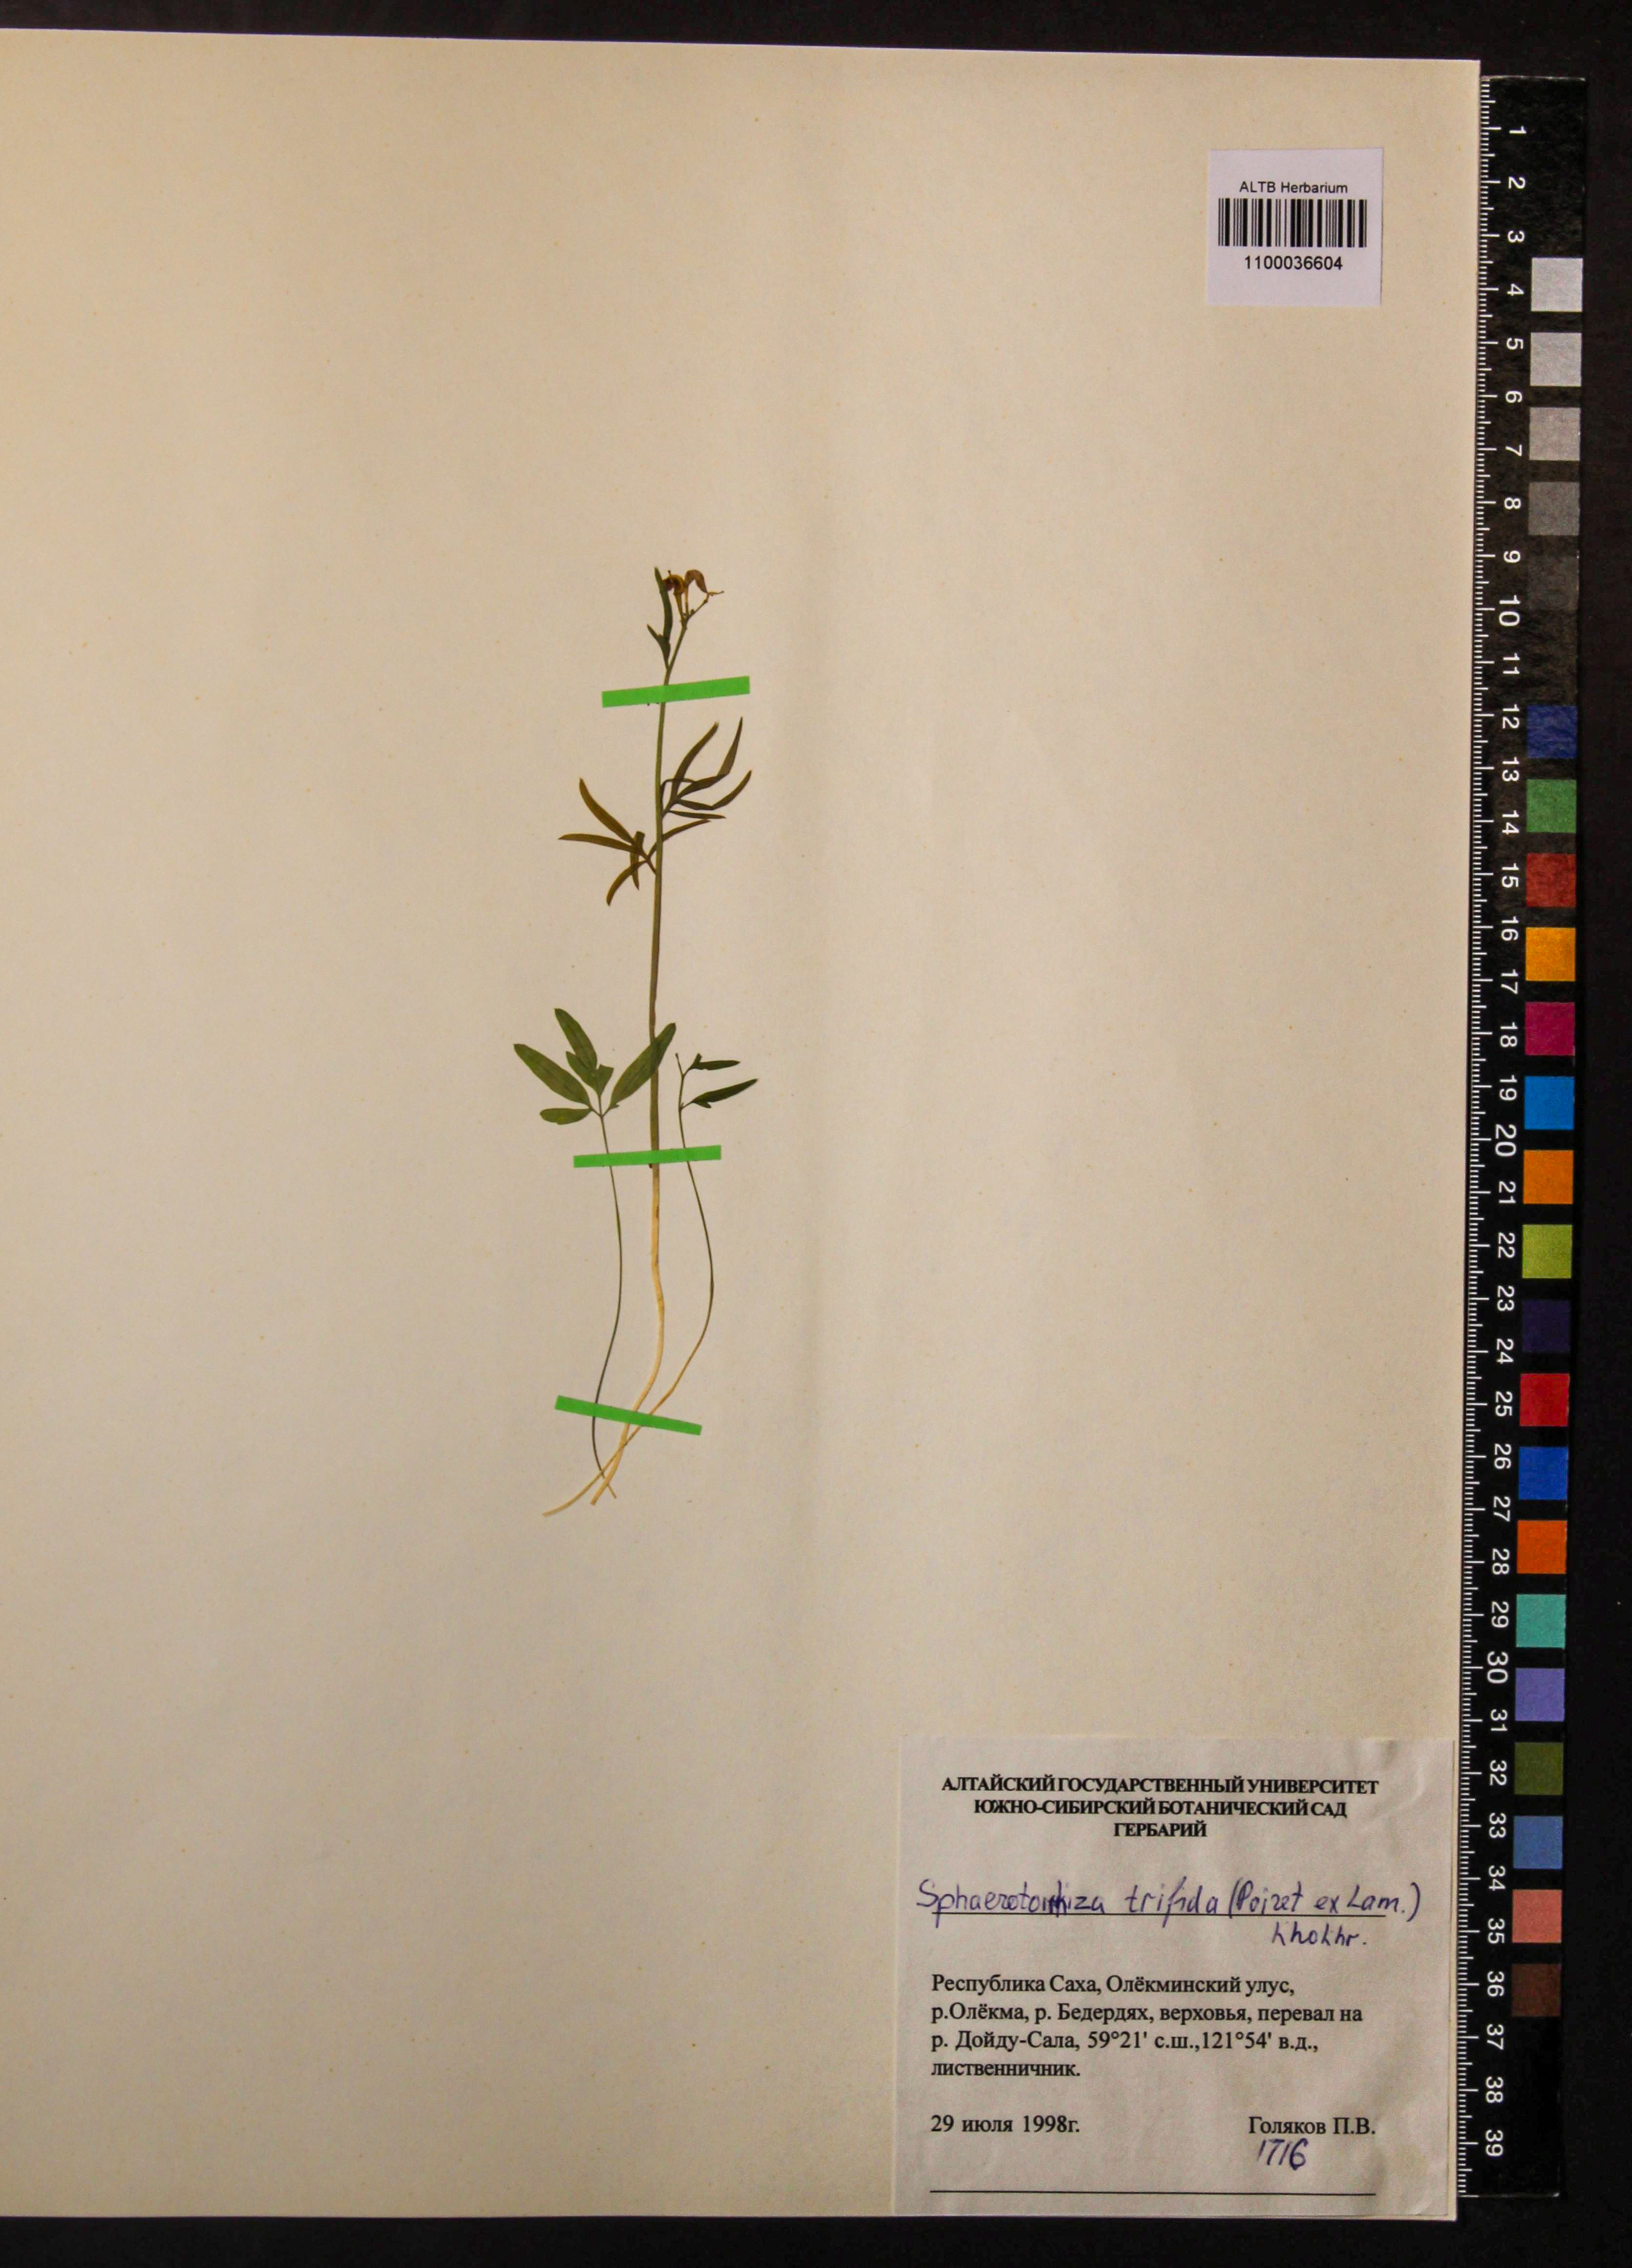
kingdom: Plantae
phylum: Tracheophyta
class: Magnoliopsida
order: Brassicales
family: Brassicaceae
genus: Cardamine
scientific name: Cardamine trifida
